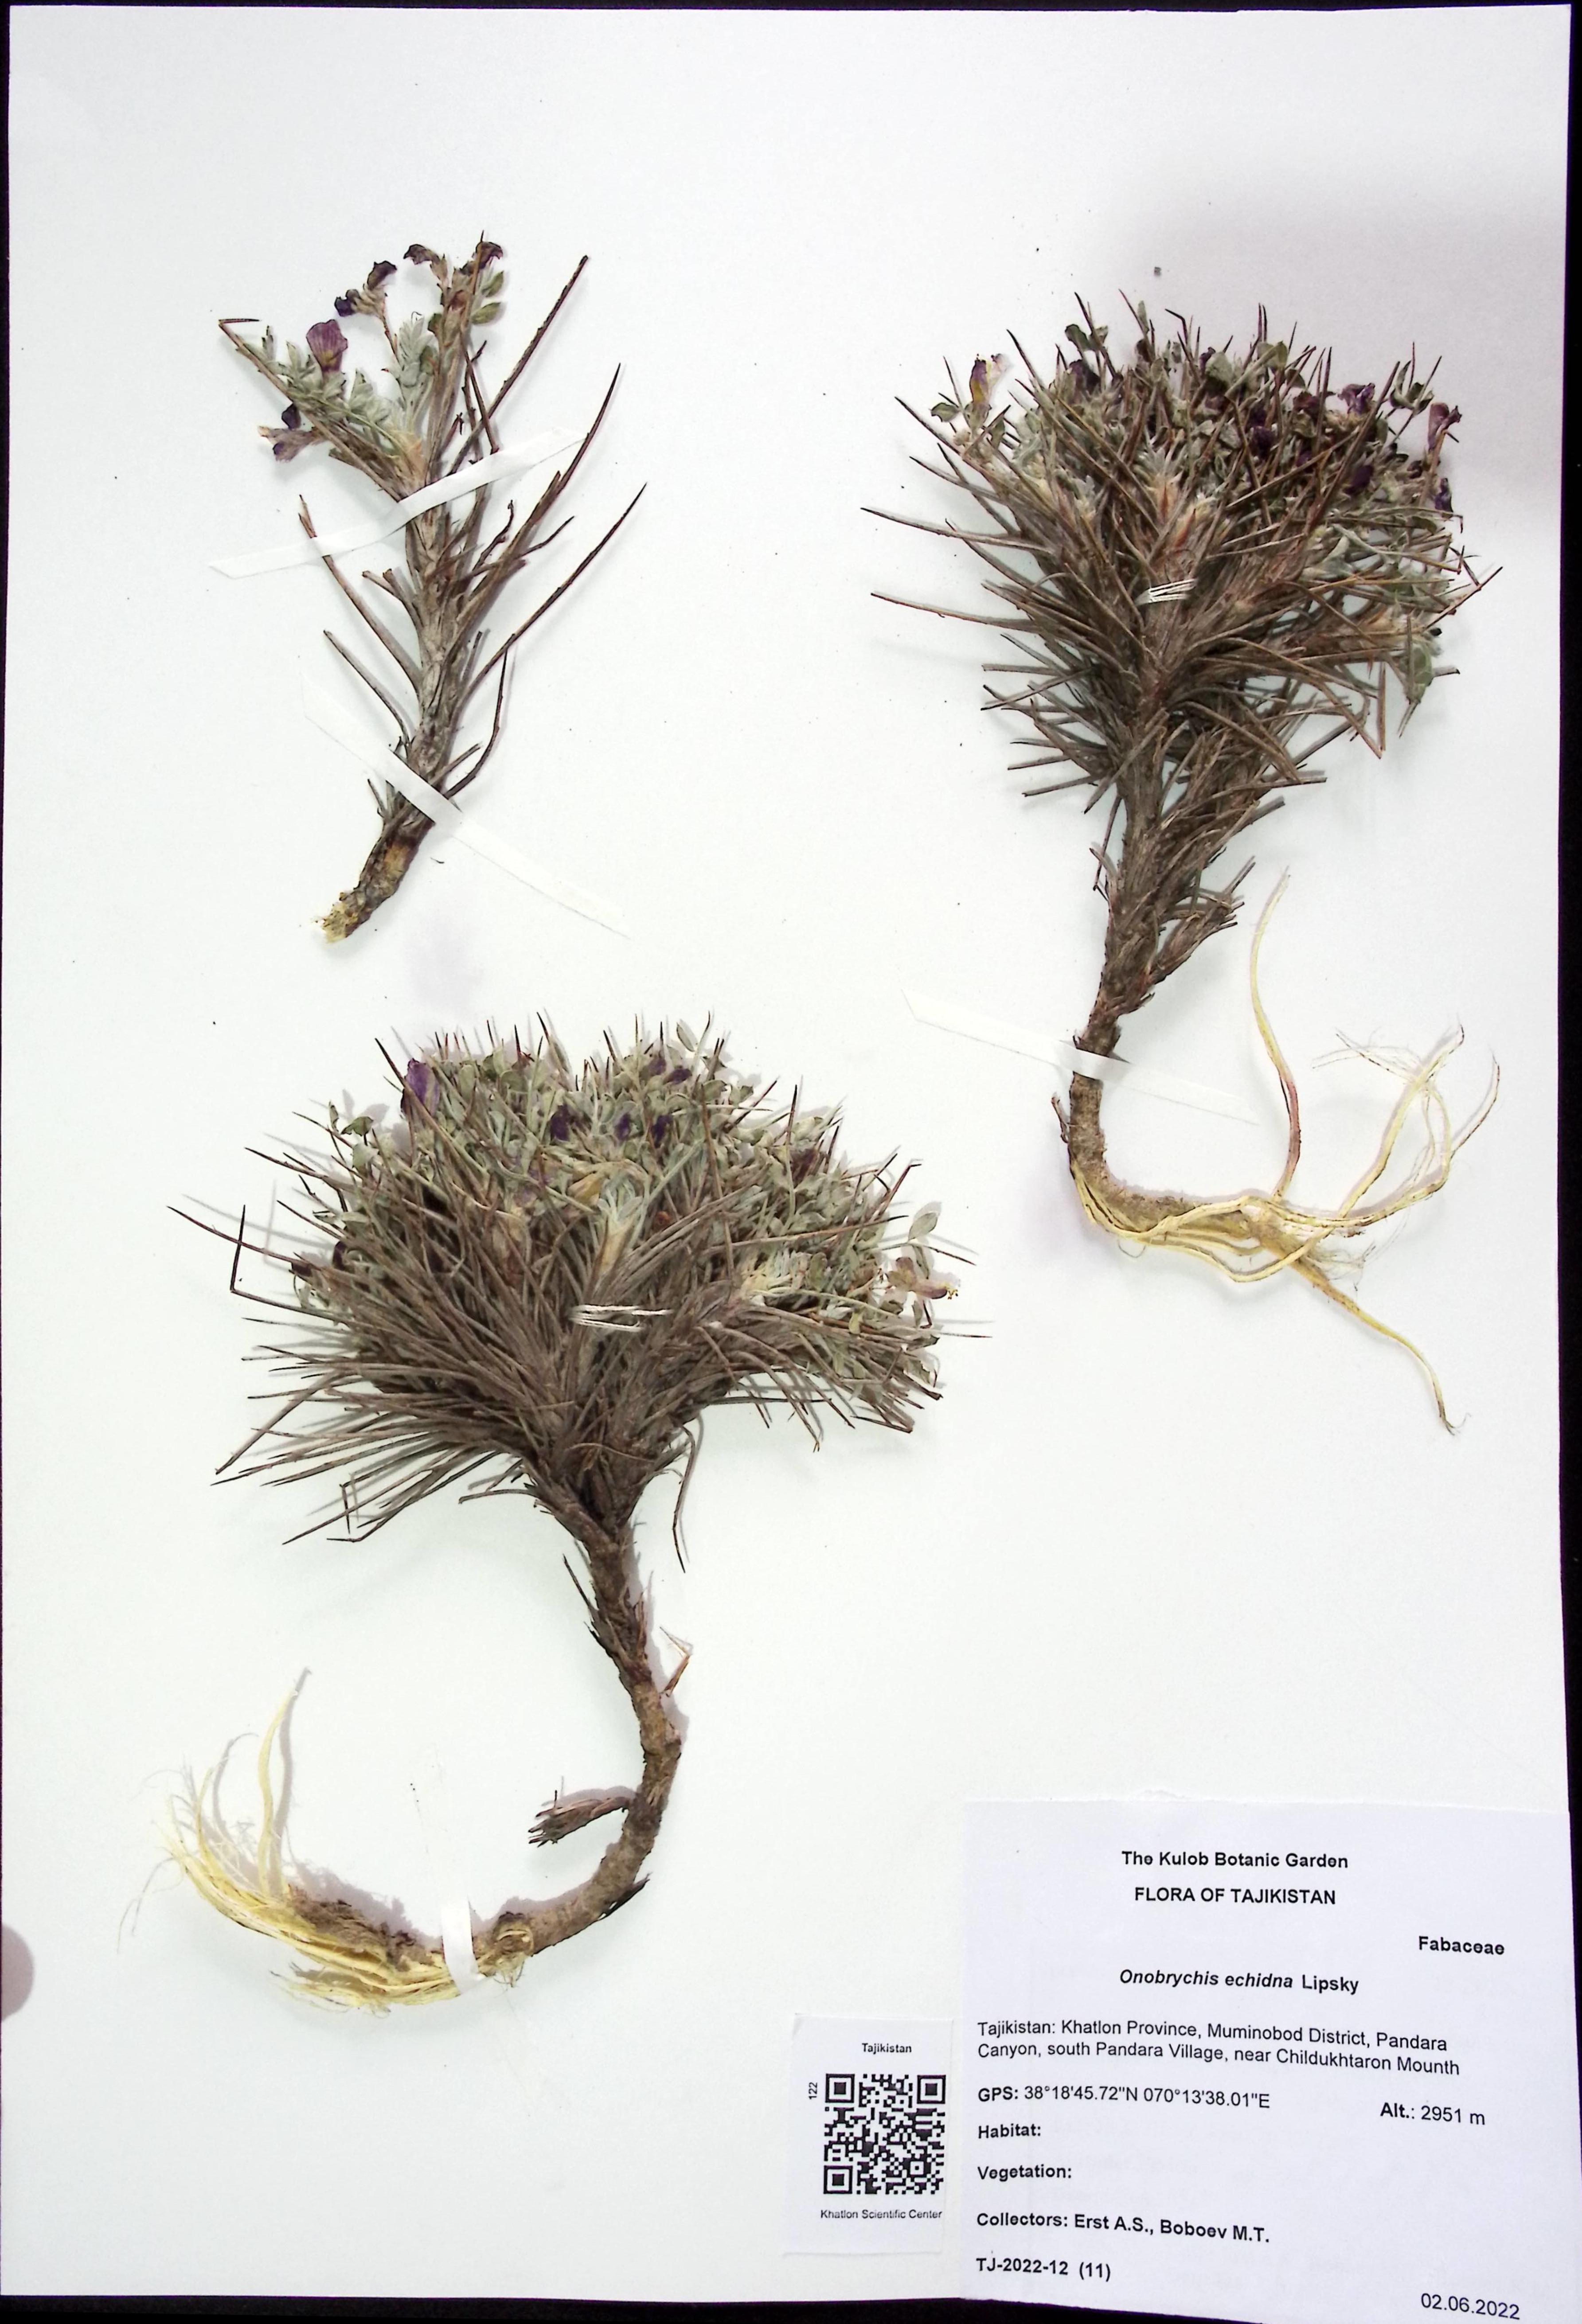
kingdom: Plantae
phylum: Tracheophyta
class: Magnoliopsida
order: Fabales
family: Fabaceae
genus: Onobrychis
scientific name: Onobrychis echidna
